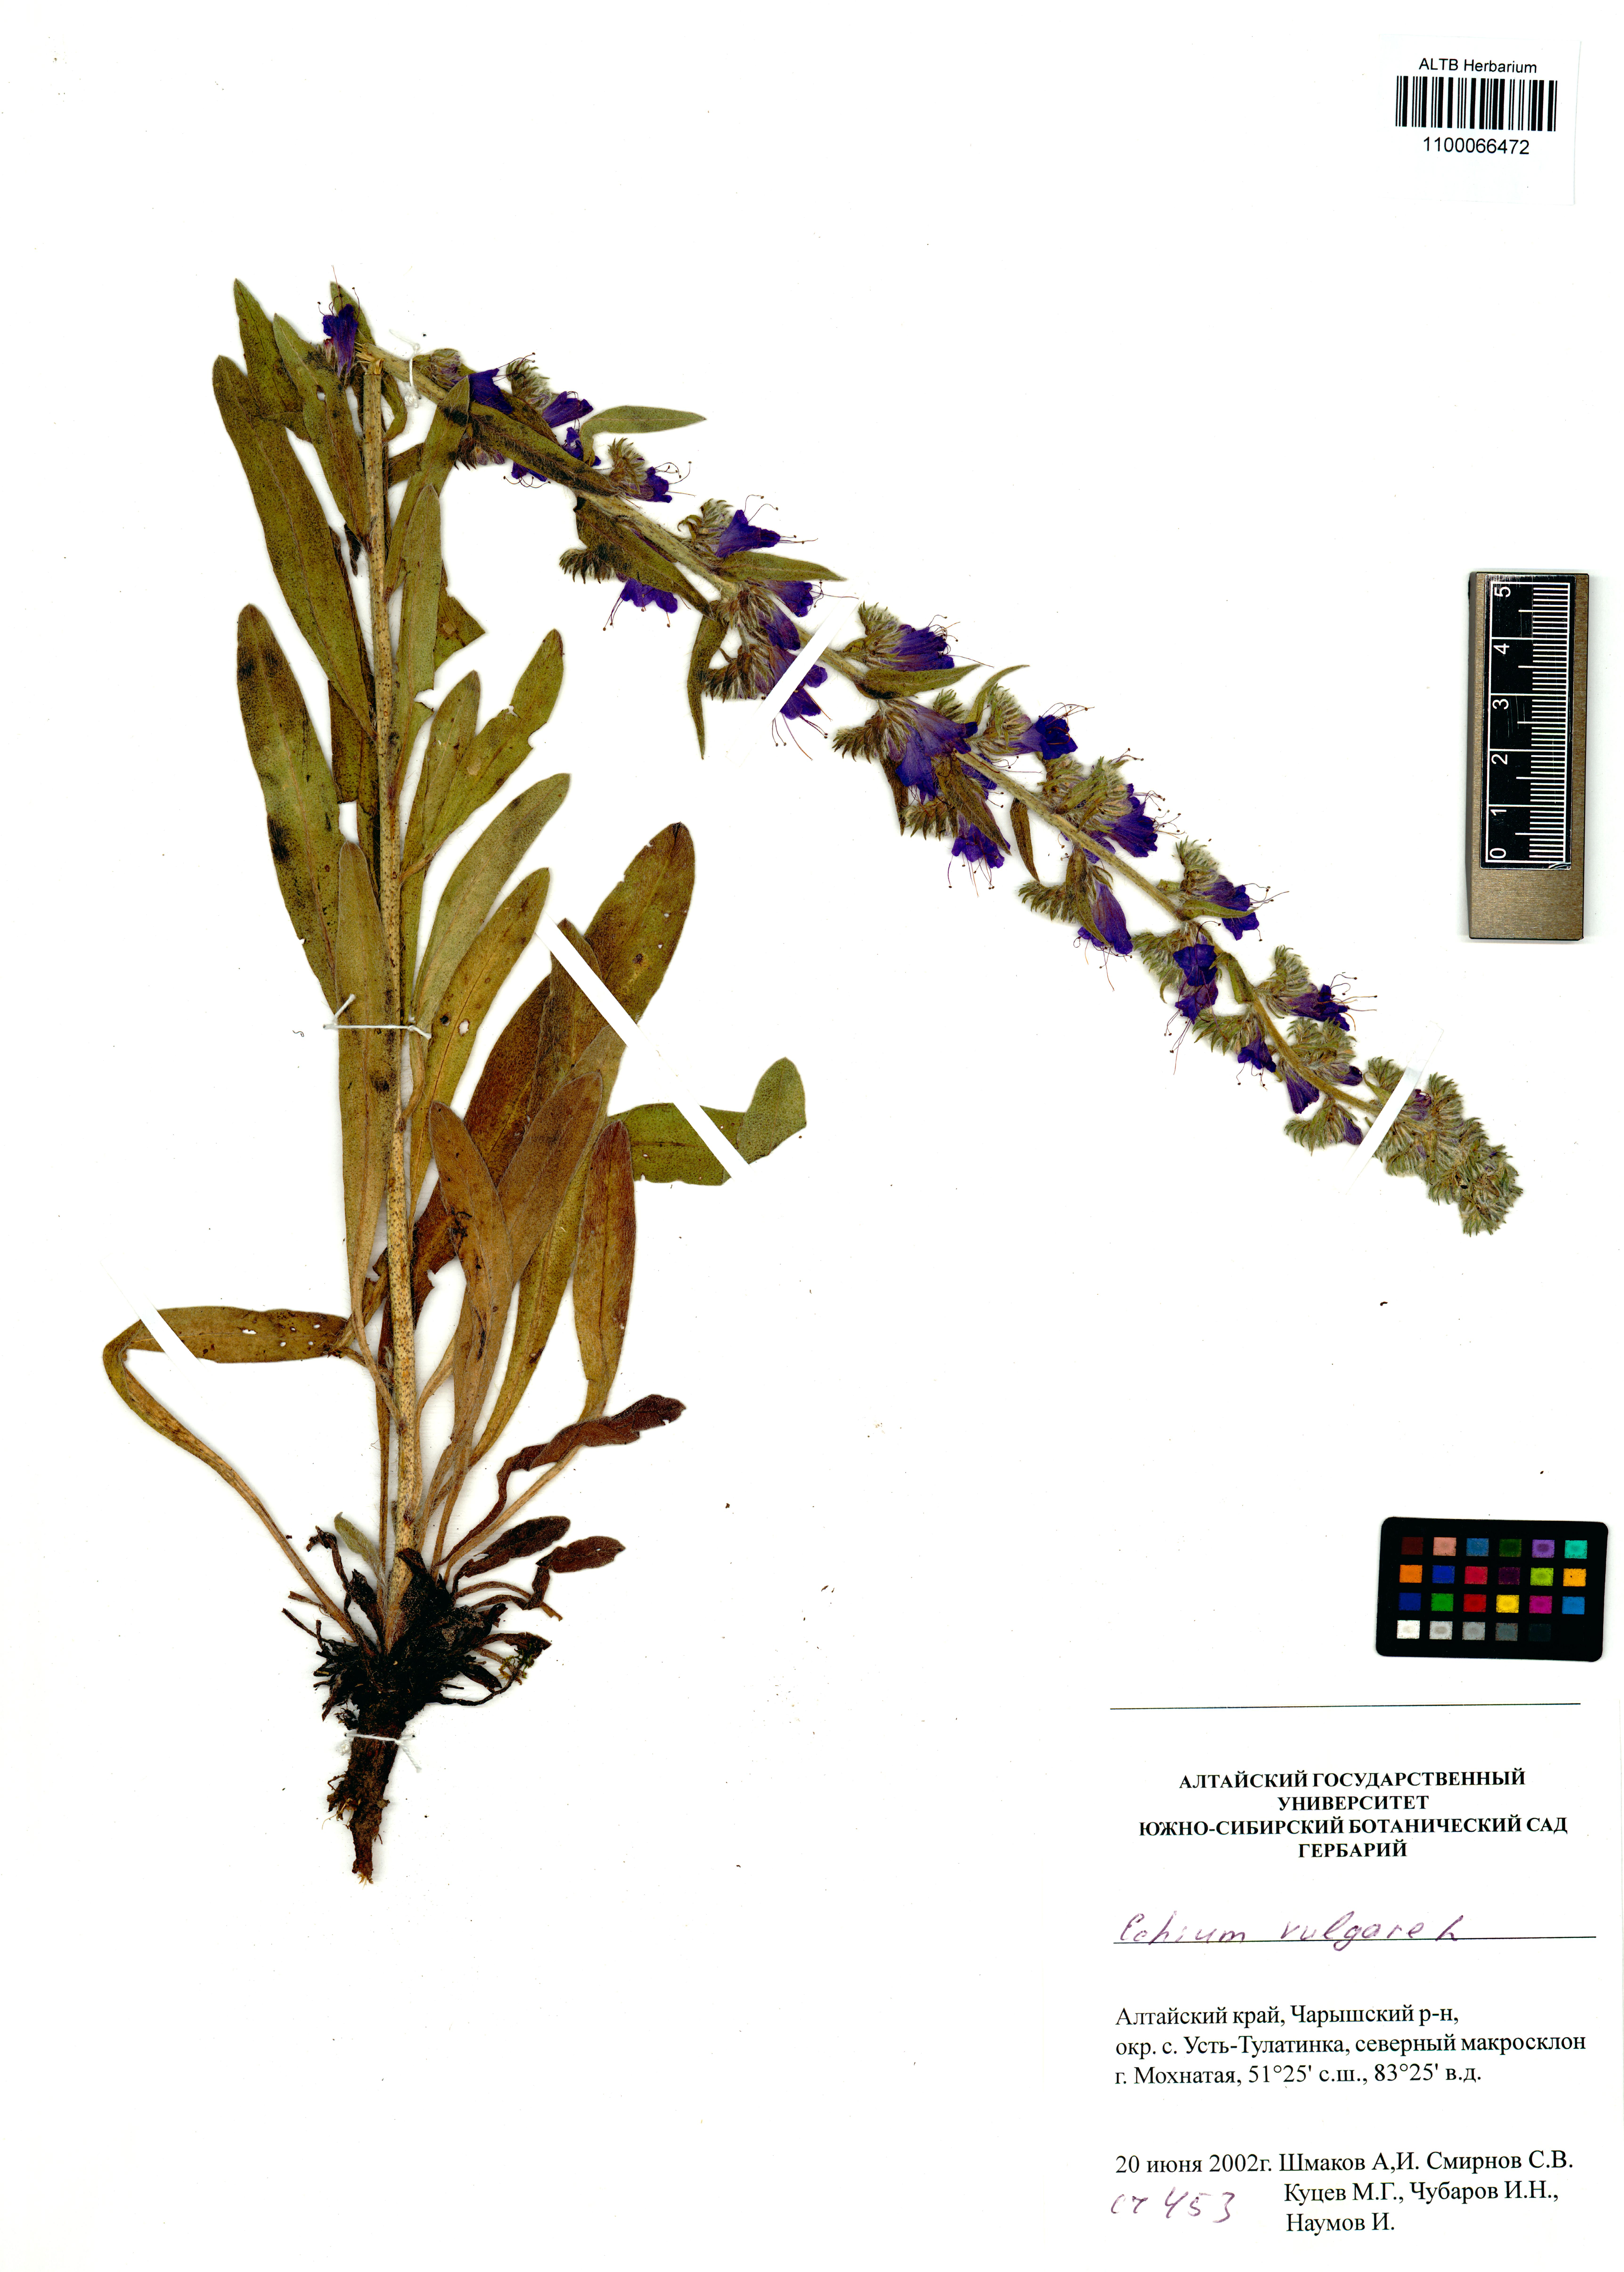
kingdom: Plantae
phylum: Tracheophyta
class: Magnoliopsida
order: Boraginales
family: Boraginaceae
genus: Echium
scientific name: Echium vulgare
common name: Common viper's bugloss
